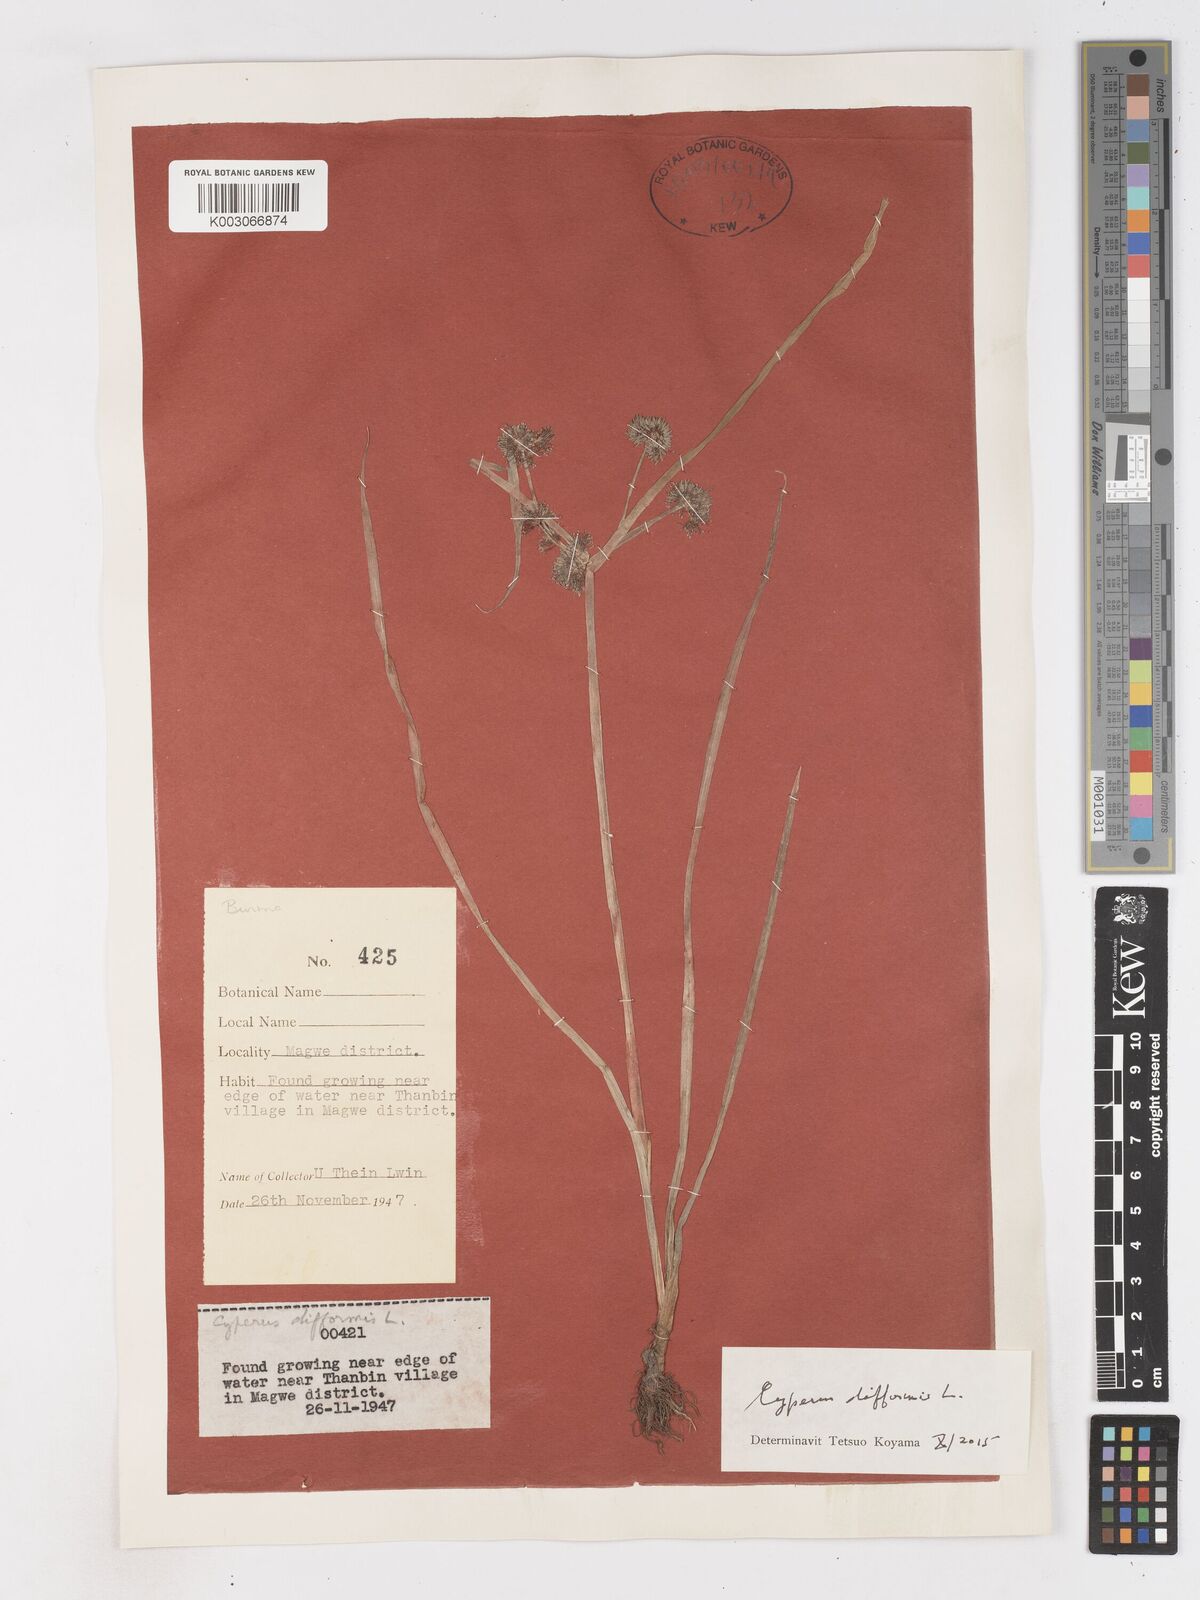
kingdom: Plantae
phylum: Tracheophyta
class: Liliopsida
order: Poales
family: Cyperaceae
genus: Cyperus
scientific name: Cyperus difformis
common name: Variable flatsedge
